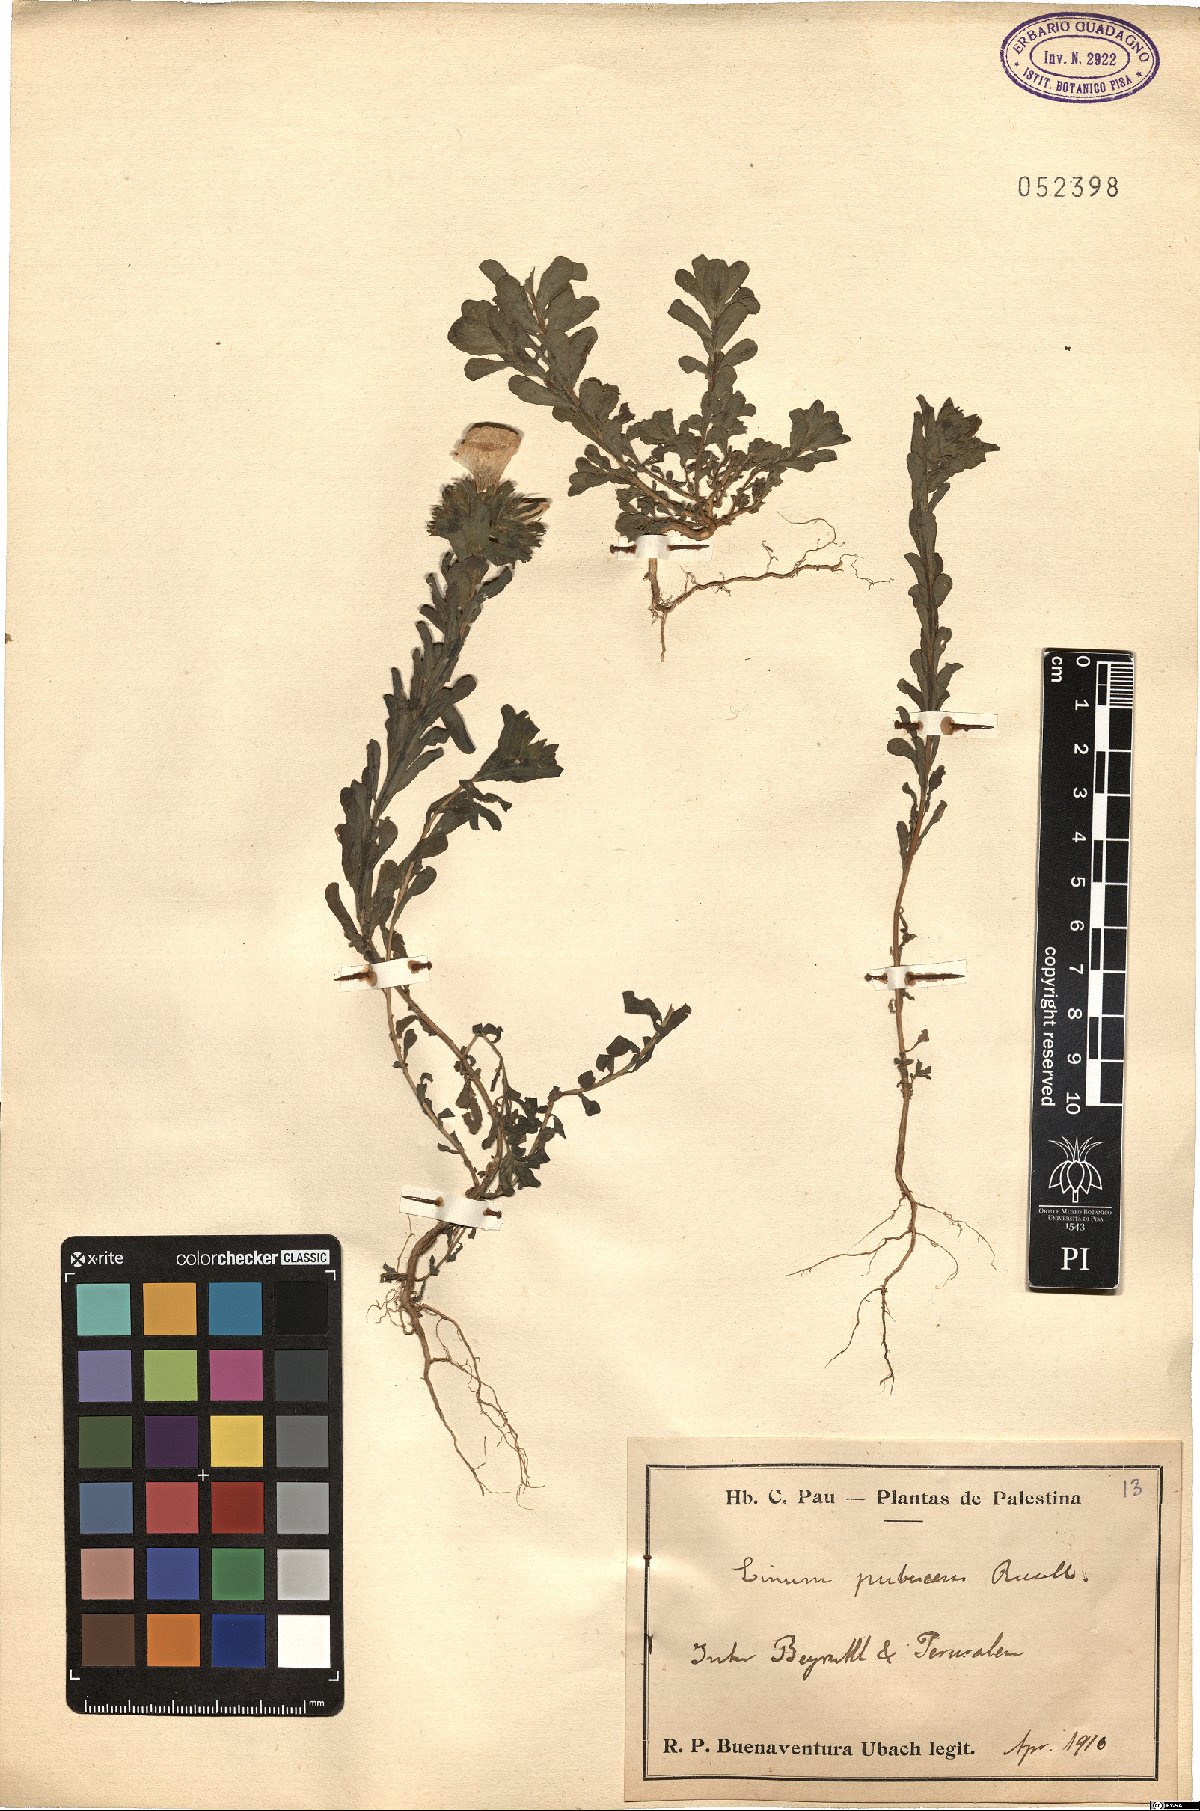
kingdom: Plantae
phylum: Tracheophyta
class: Magnoliopsida
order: Malpighiales
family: Linaceae
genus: Linum
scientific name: Linum pubescens
